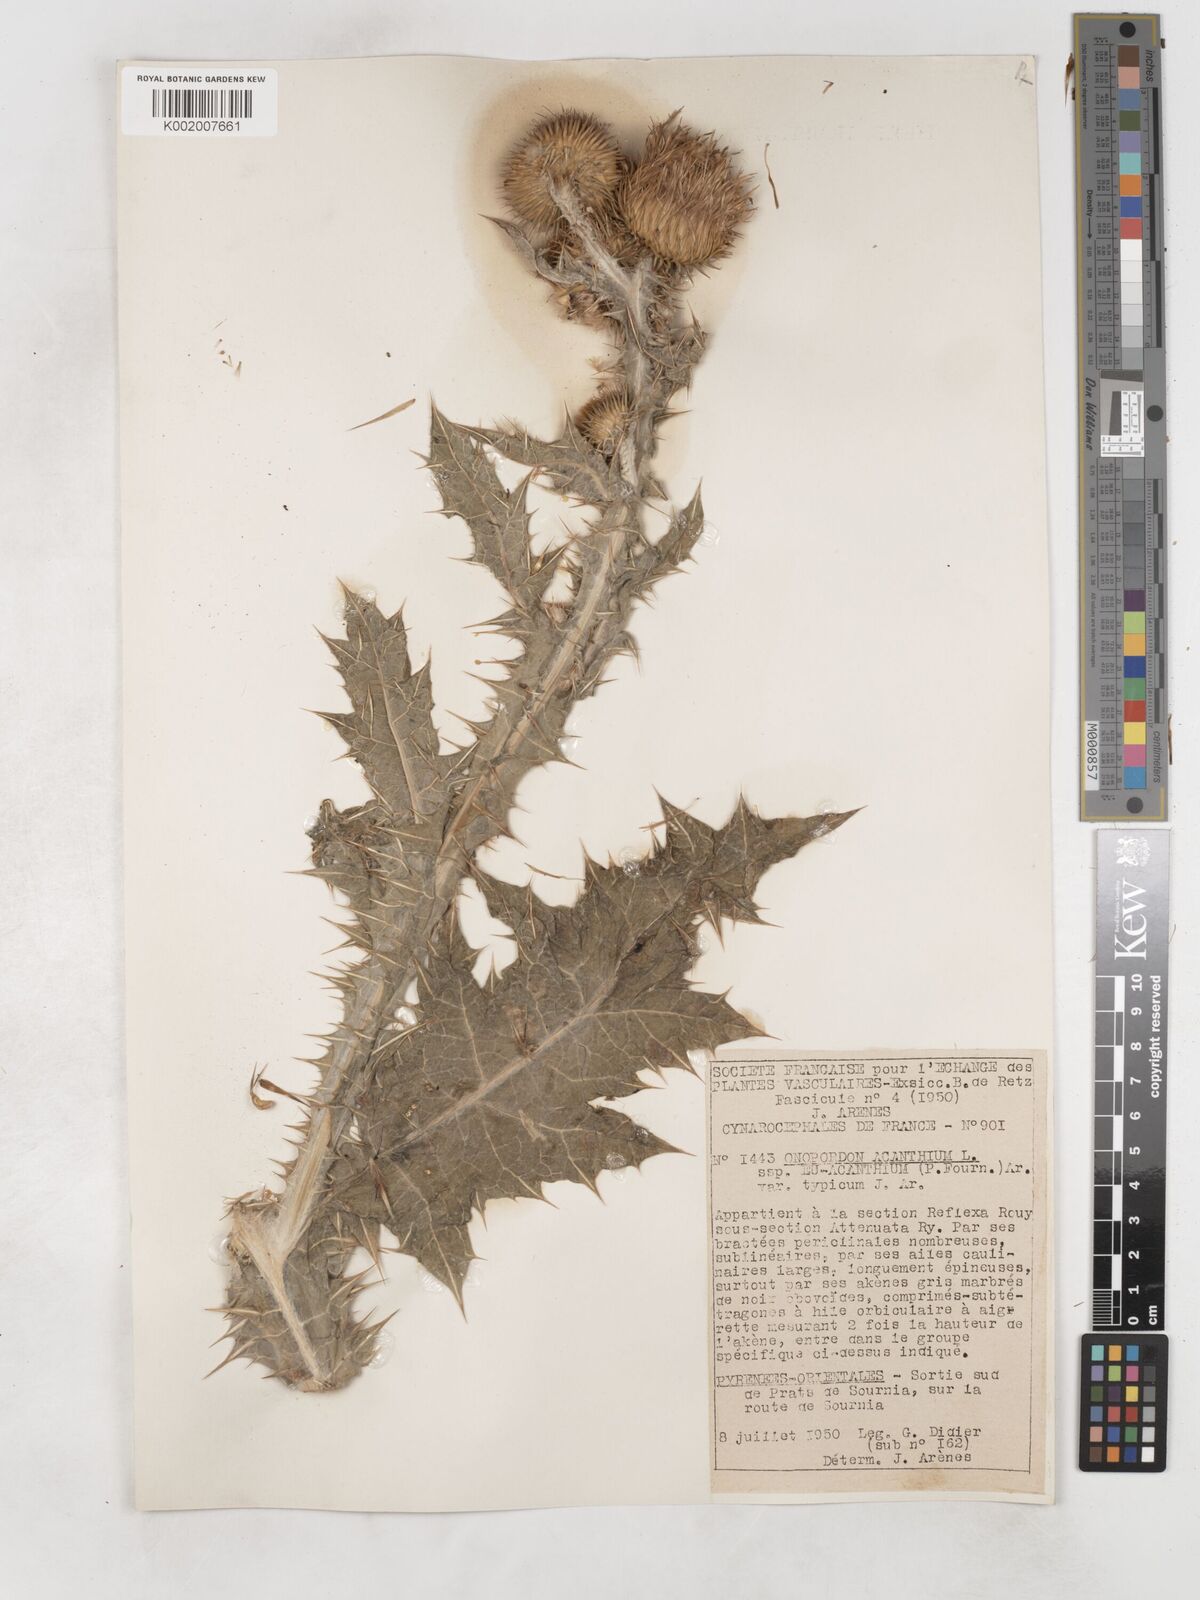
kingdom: Plantae
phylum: Tracheophyta
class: Magnoliopsida
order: Asterales
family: Asteraceae
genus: Onopordum
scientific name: Onopordum acanthium
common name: Scotch thistle
